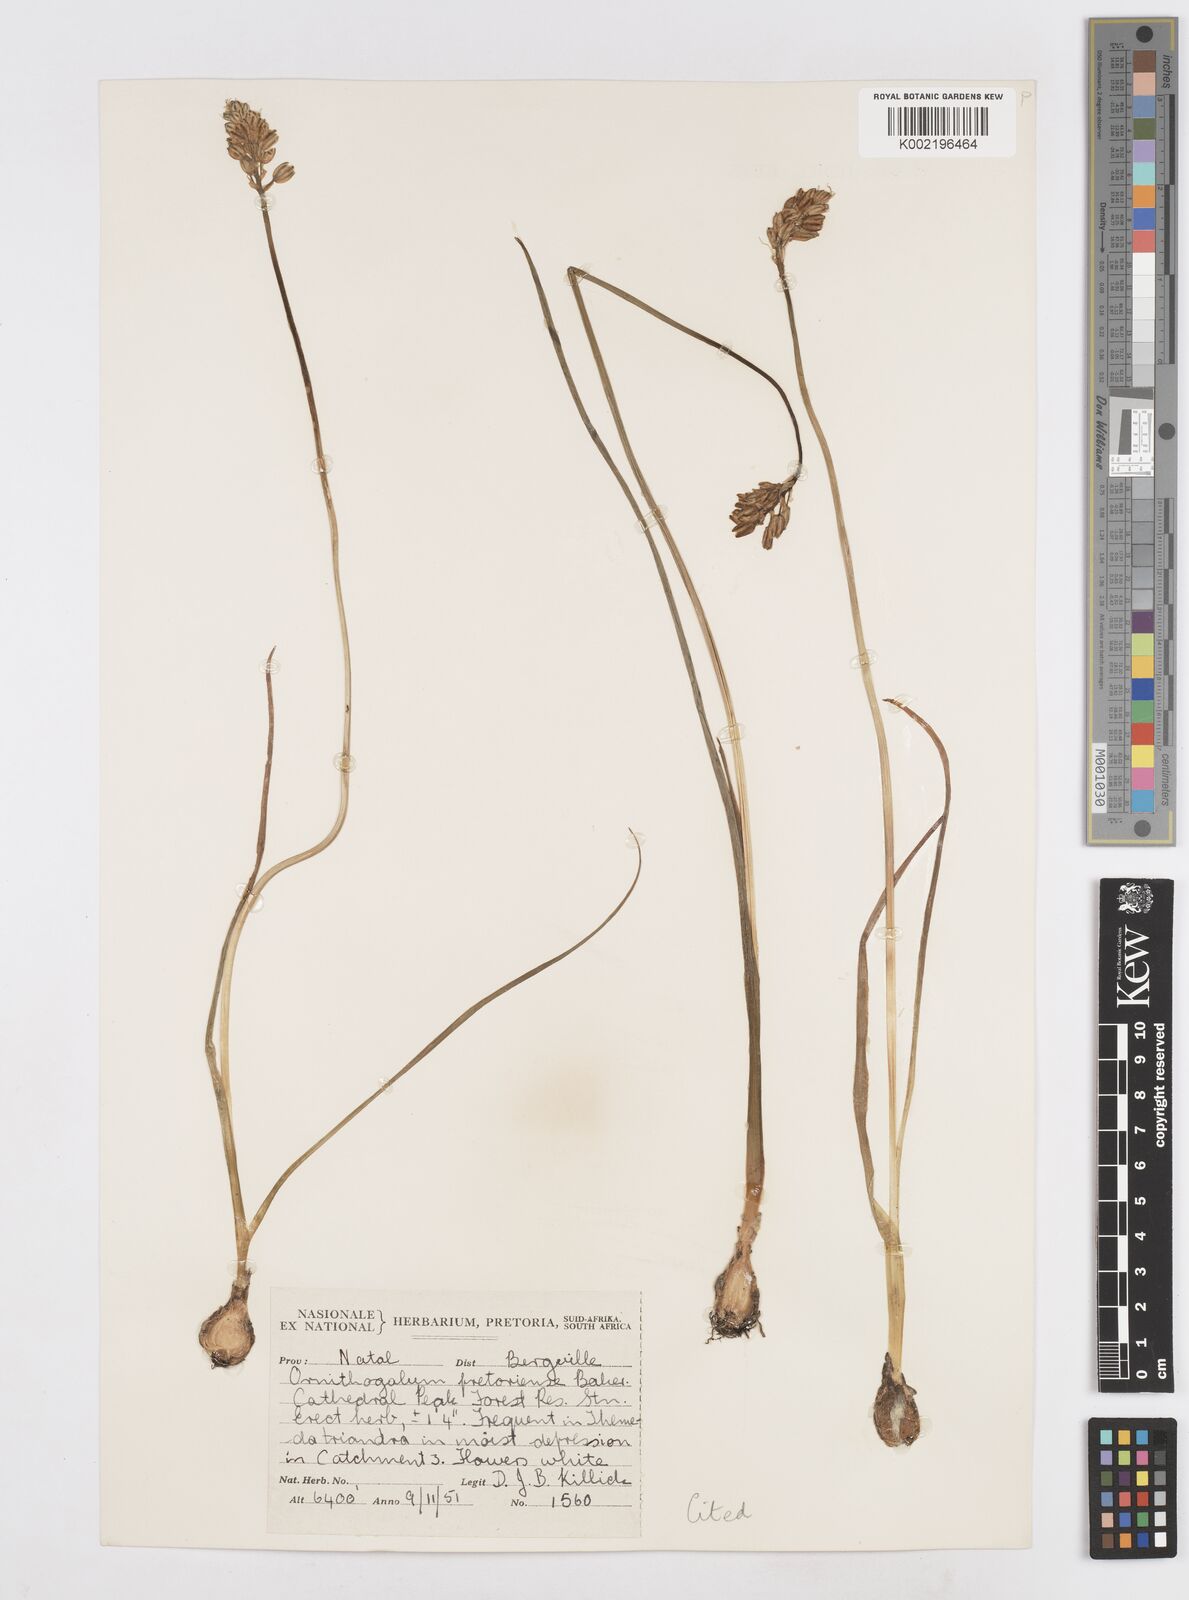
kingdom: Plantae
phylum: Tracheophyta
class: Liliopsida
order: Asparagales
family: Asparagaceae
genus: Albuca
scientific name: Albuca virens
